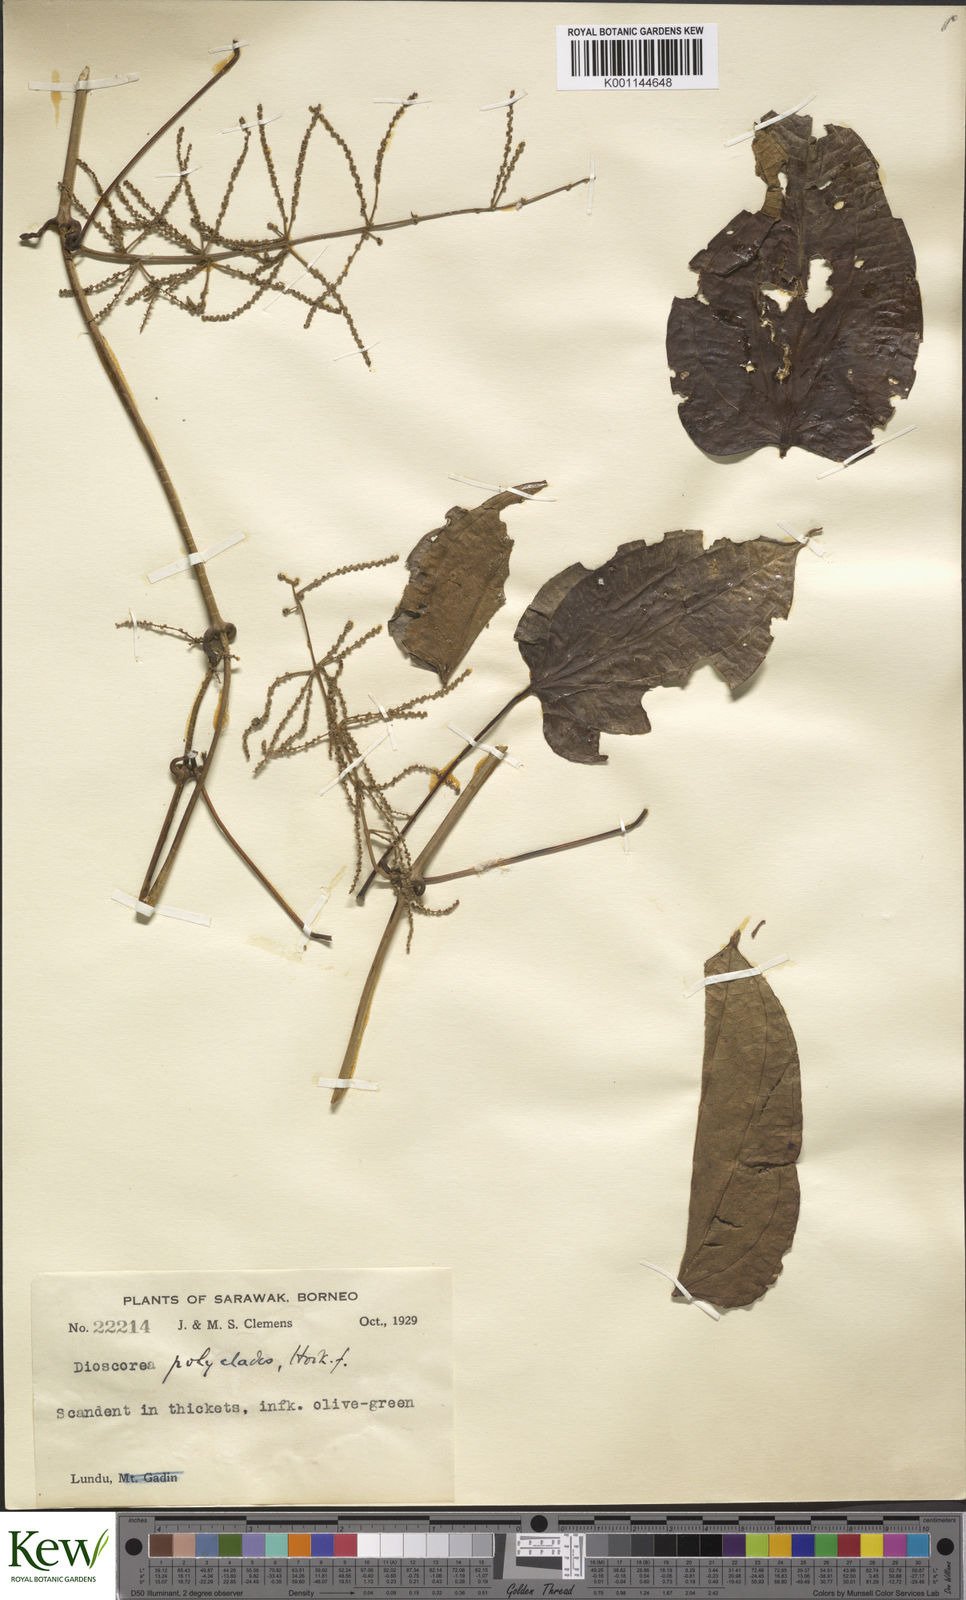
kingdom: Plantae
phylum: Tracheophyta
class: Liliopsida
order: Dioscoreales
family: Dioscoreaceae
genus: Dioscorea
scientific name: Dioscorea polyclados
